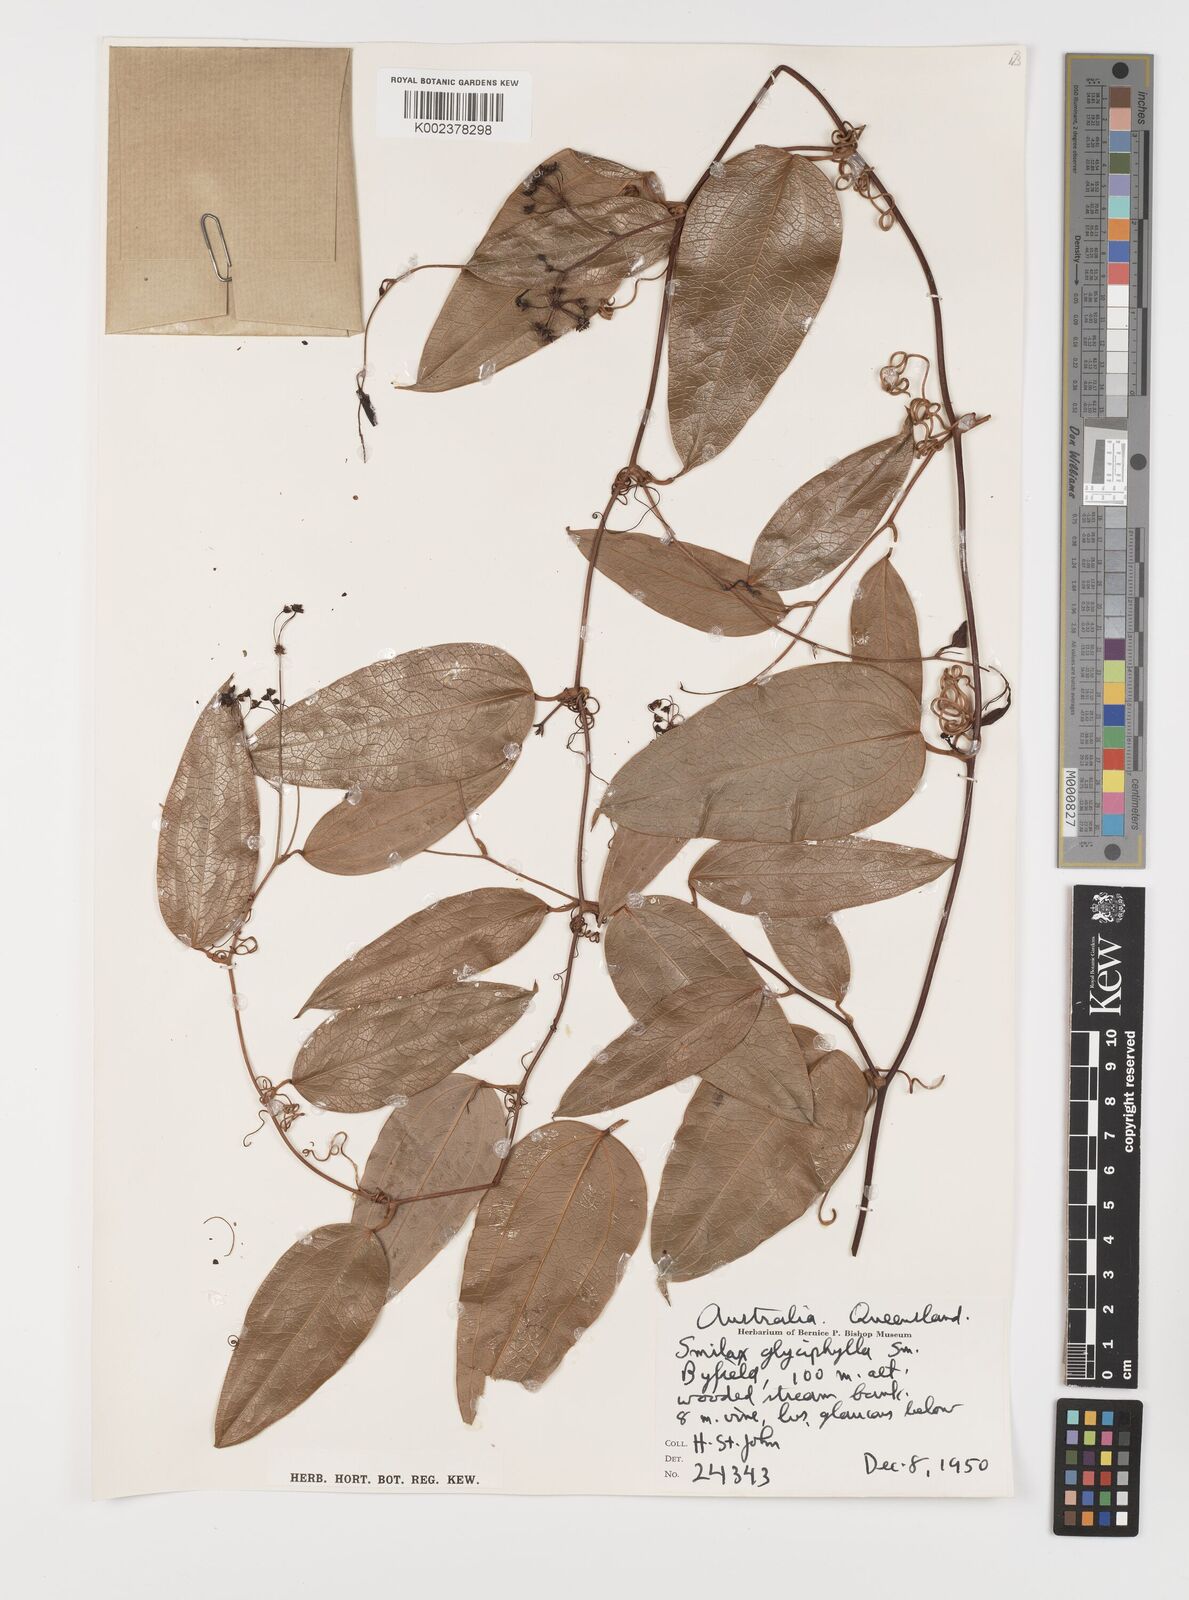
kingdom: Plantae
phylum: Tracheophyta
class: Liliopsida
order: Liliales
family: Smilacaceae
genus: Smilax
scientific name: Smilax
